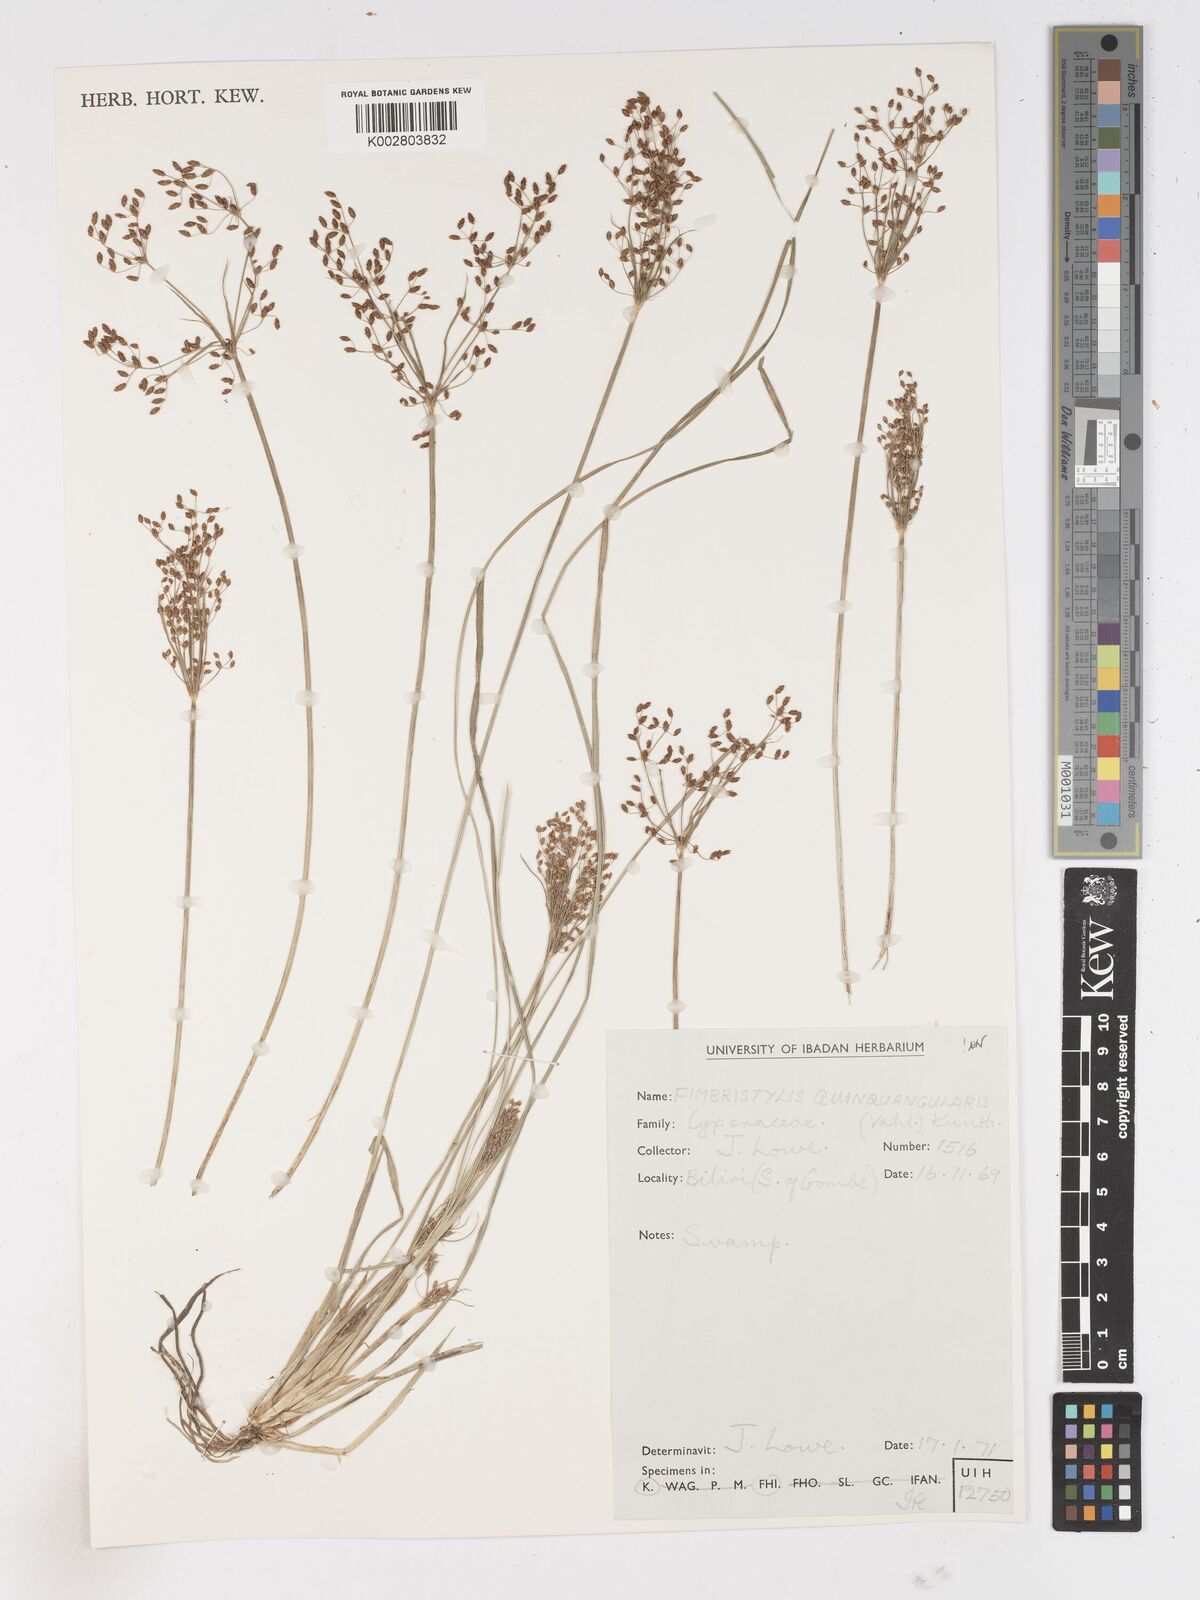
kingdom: Plantae
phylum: Tracheophyta
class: Liliopsida
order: Poales
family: Cyperaceae
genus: Fimbristylis
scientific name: Fimbristylis quinquangularis
